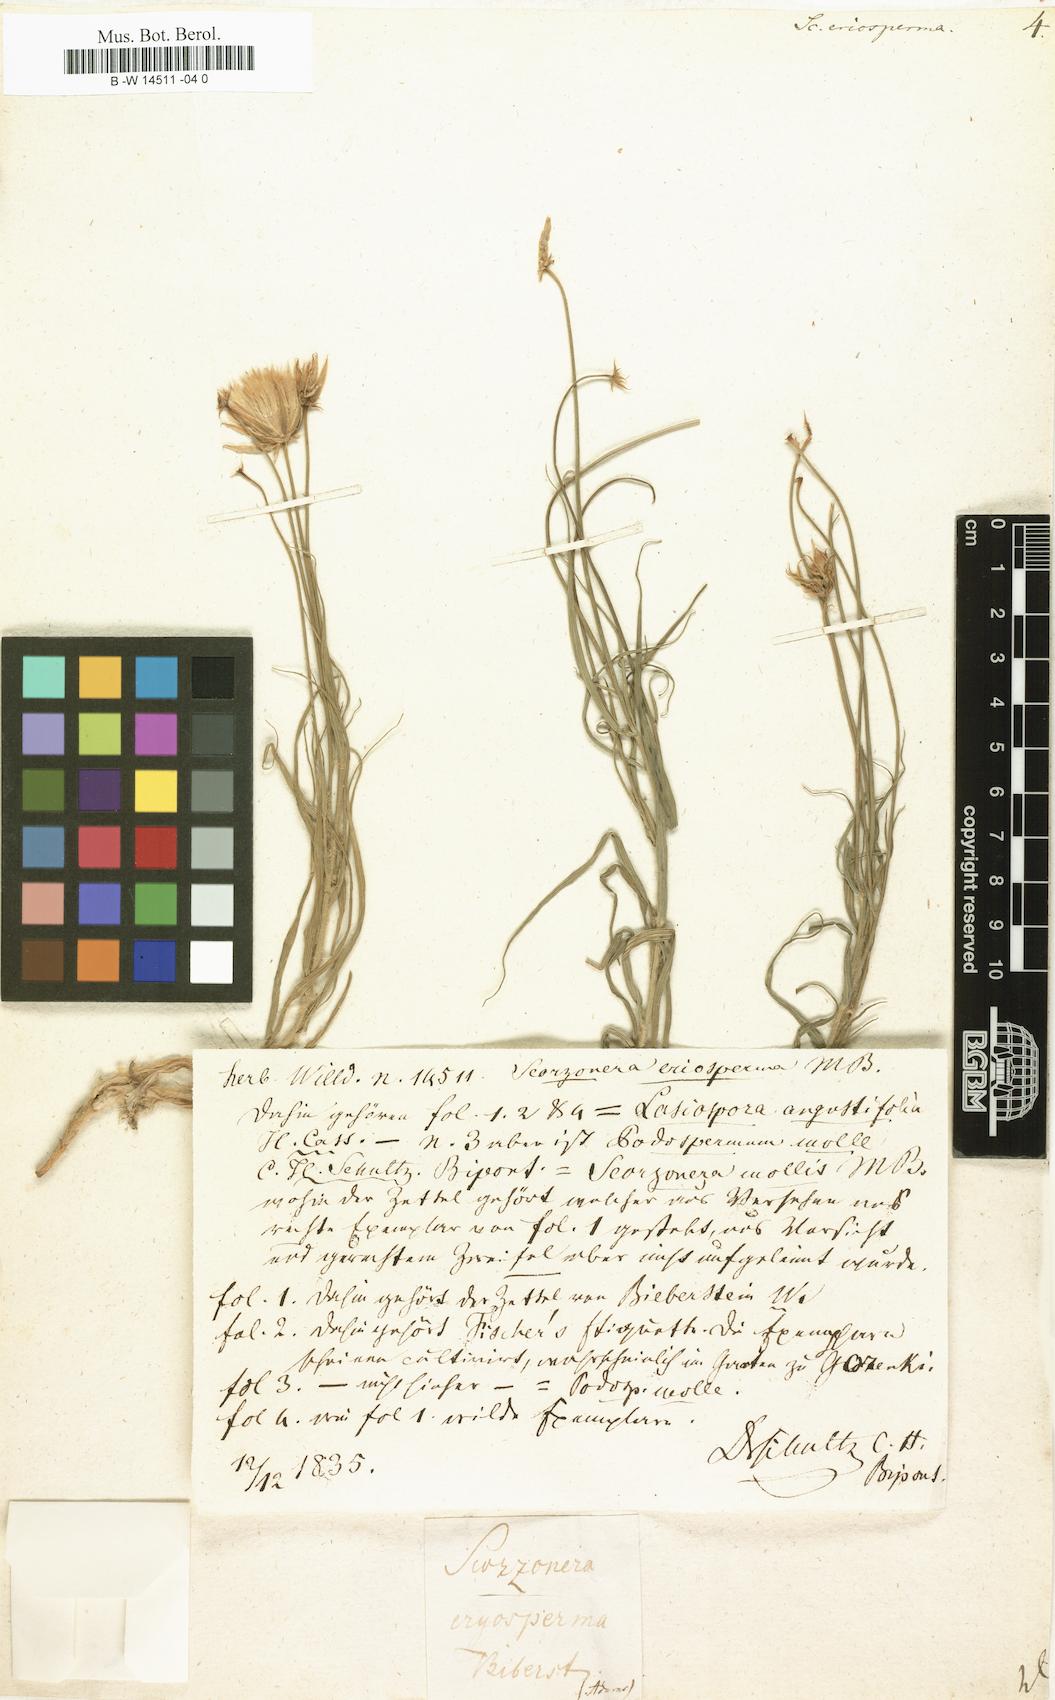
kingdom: Plantae
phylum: Tracheophyta
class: Magnoliopsida
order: Asterales
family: Asteraceae
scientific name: Asteraceae
